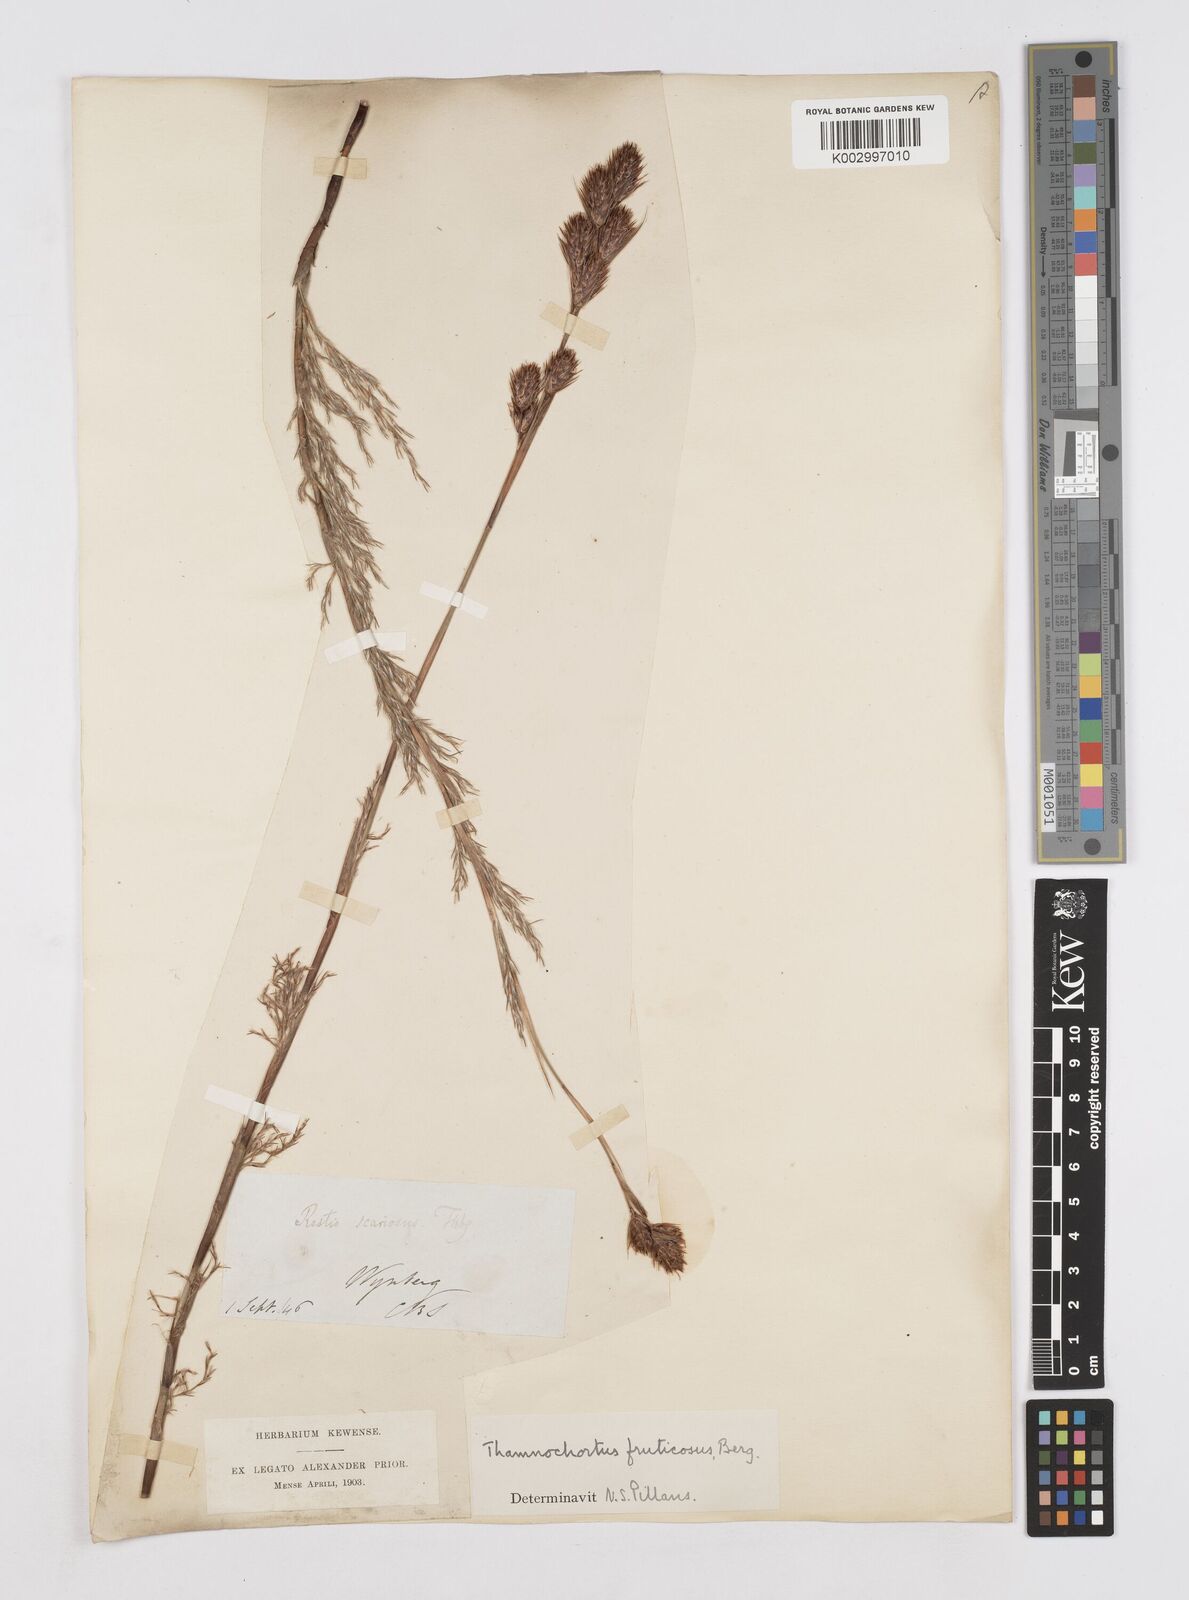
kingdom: Plantae
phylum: Tracheophyta
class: Liliopsida
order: Poales
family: Restionaceae
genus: Thamnochortus
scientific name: Thamnochortus fruticosus
